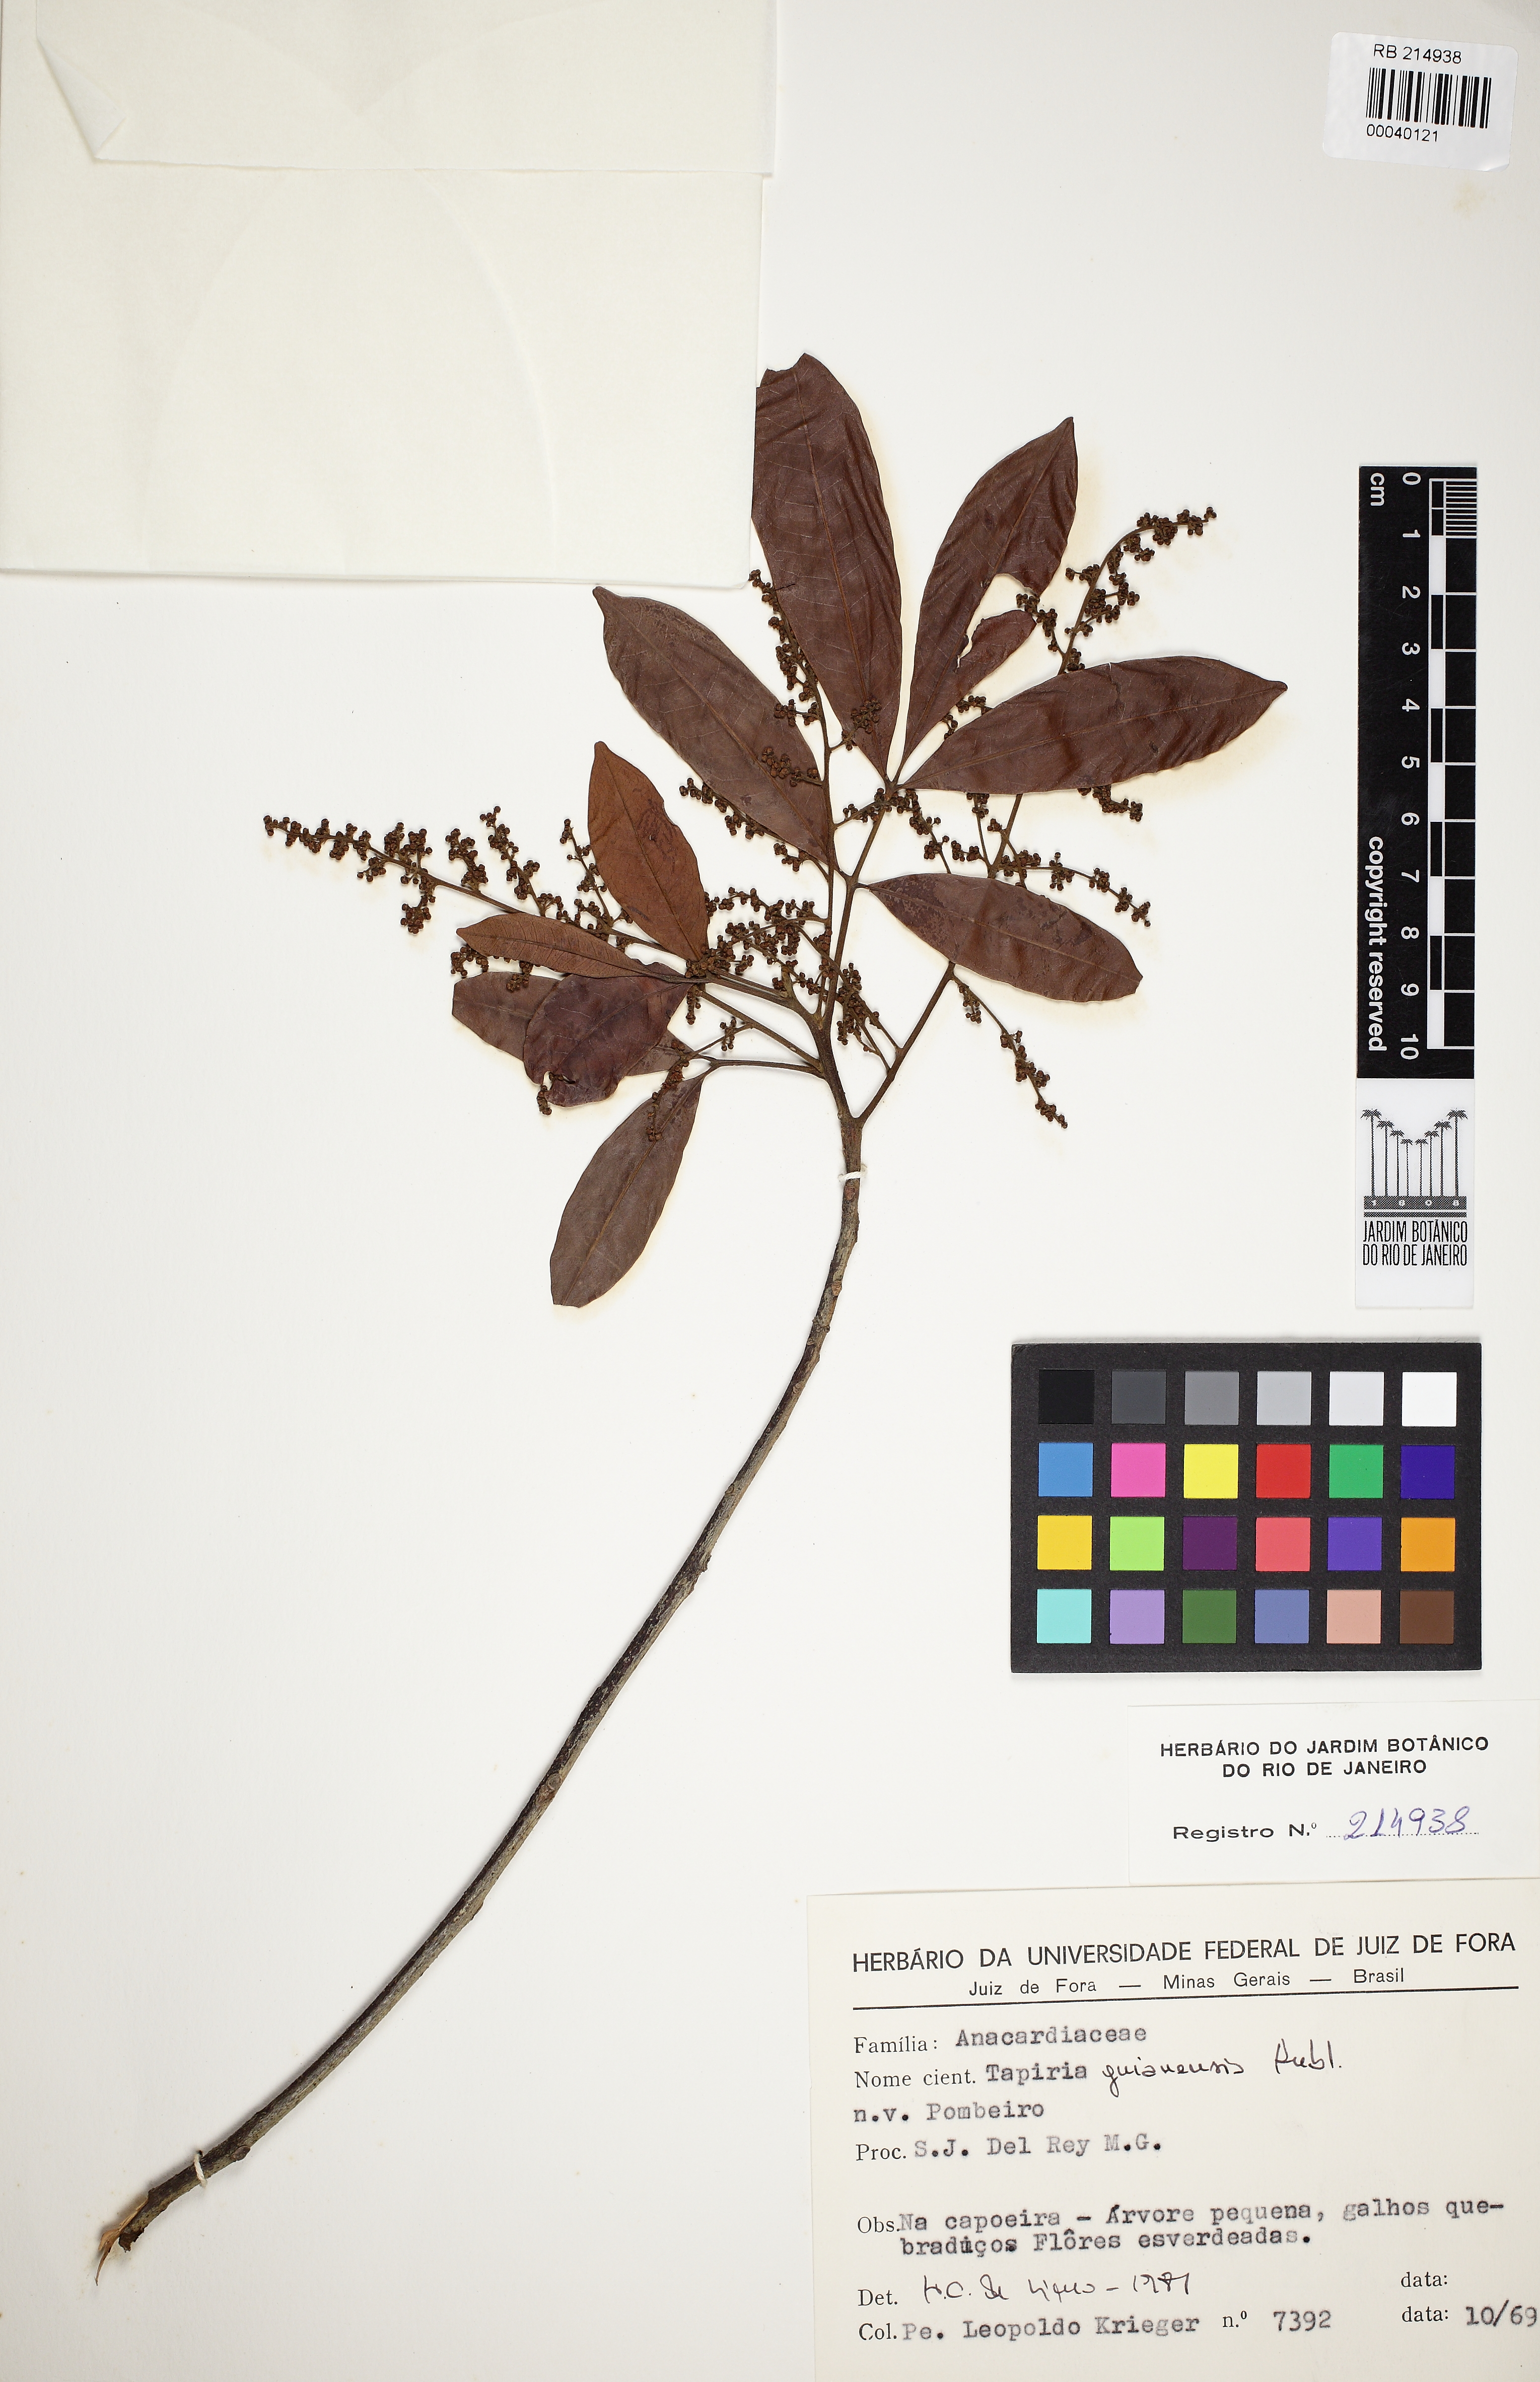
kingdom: Plantae
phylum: Tracheophyta
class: Magnoliopsida
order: Sapindales
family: Anacardiaceae
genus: Tapirira
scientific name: Tapirira guianensis
